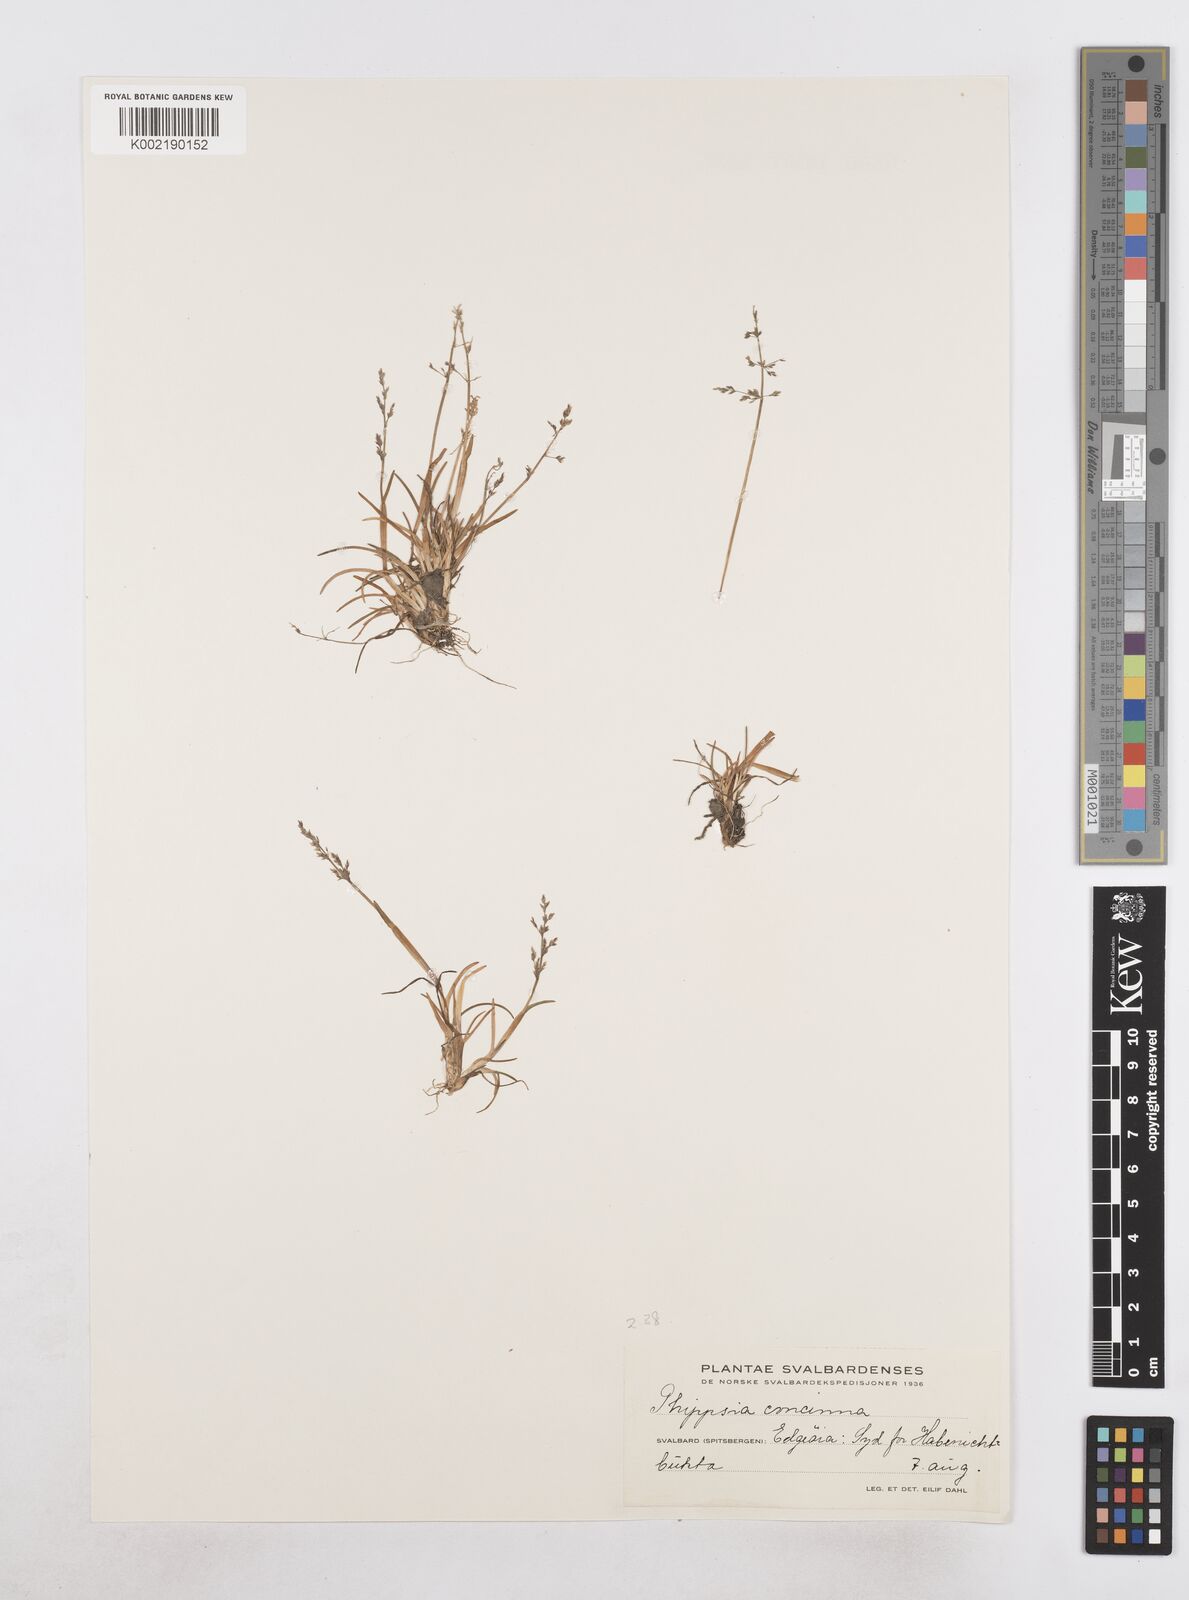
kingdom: Plantae
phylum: Tracheophyta
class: Liliopsida
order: Poales
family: Poaceae
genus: Phippsia
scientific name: Phippsia concinna
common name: Snowgrass
